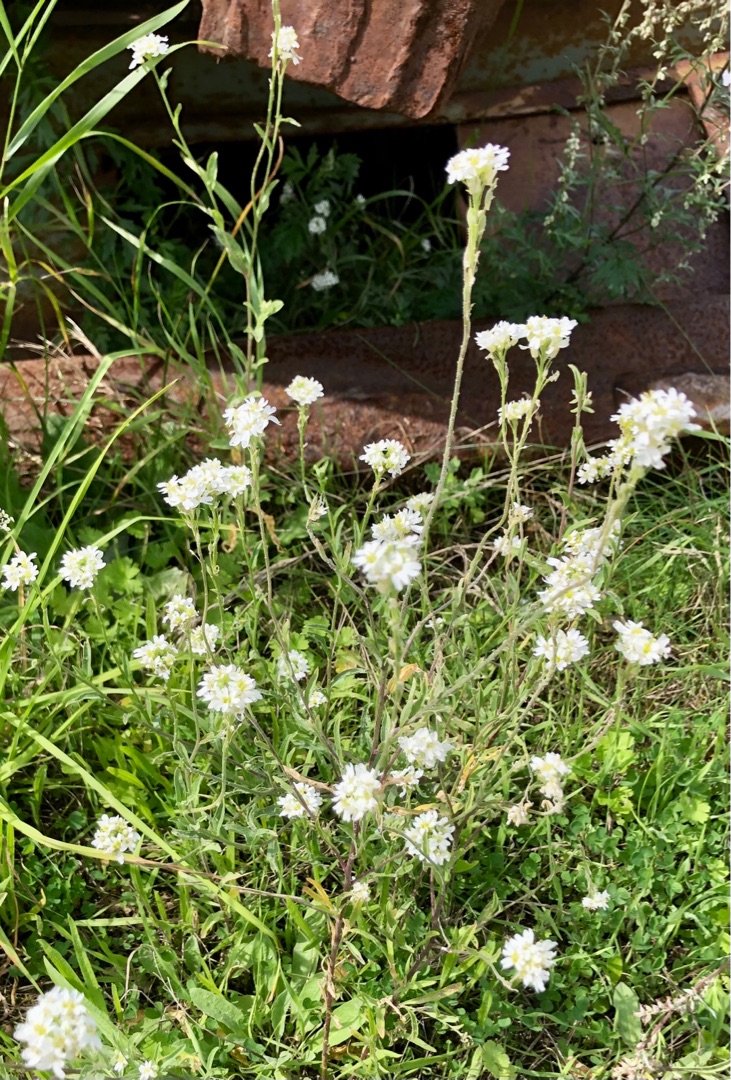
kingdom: Plantae
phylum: Tracheophyta
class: Magnoliopsida
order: Brassicales
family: Brassicaceae
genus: Berteroa
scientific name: Berteroa incana
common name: Kløvplade
